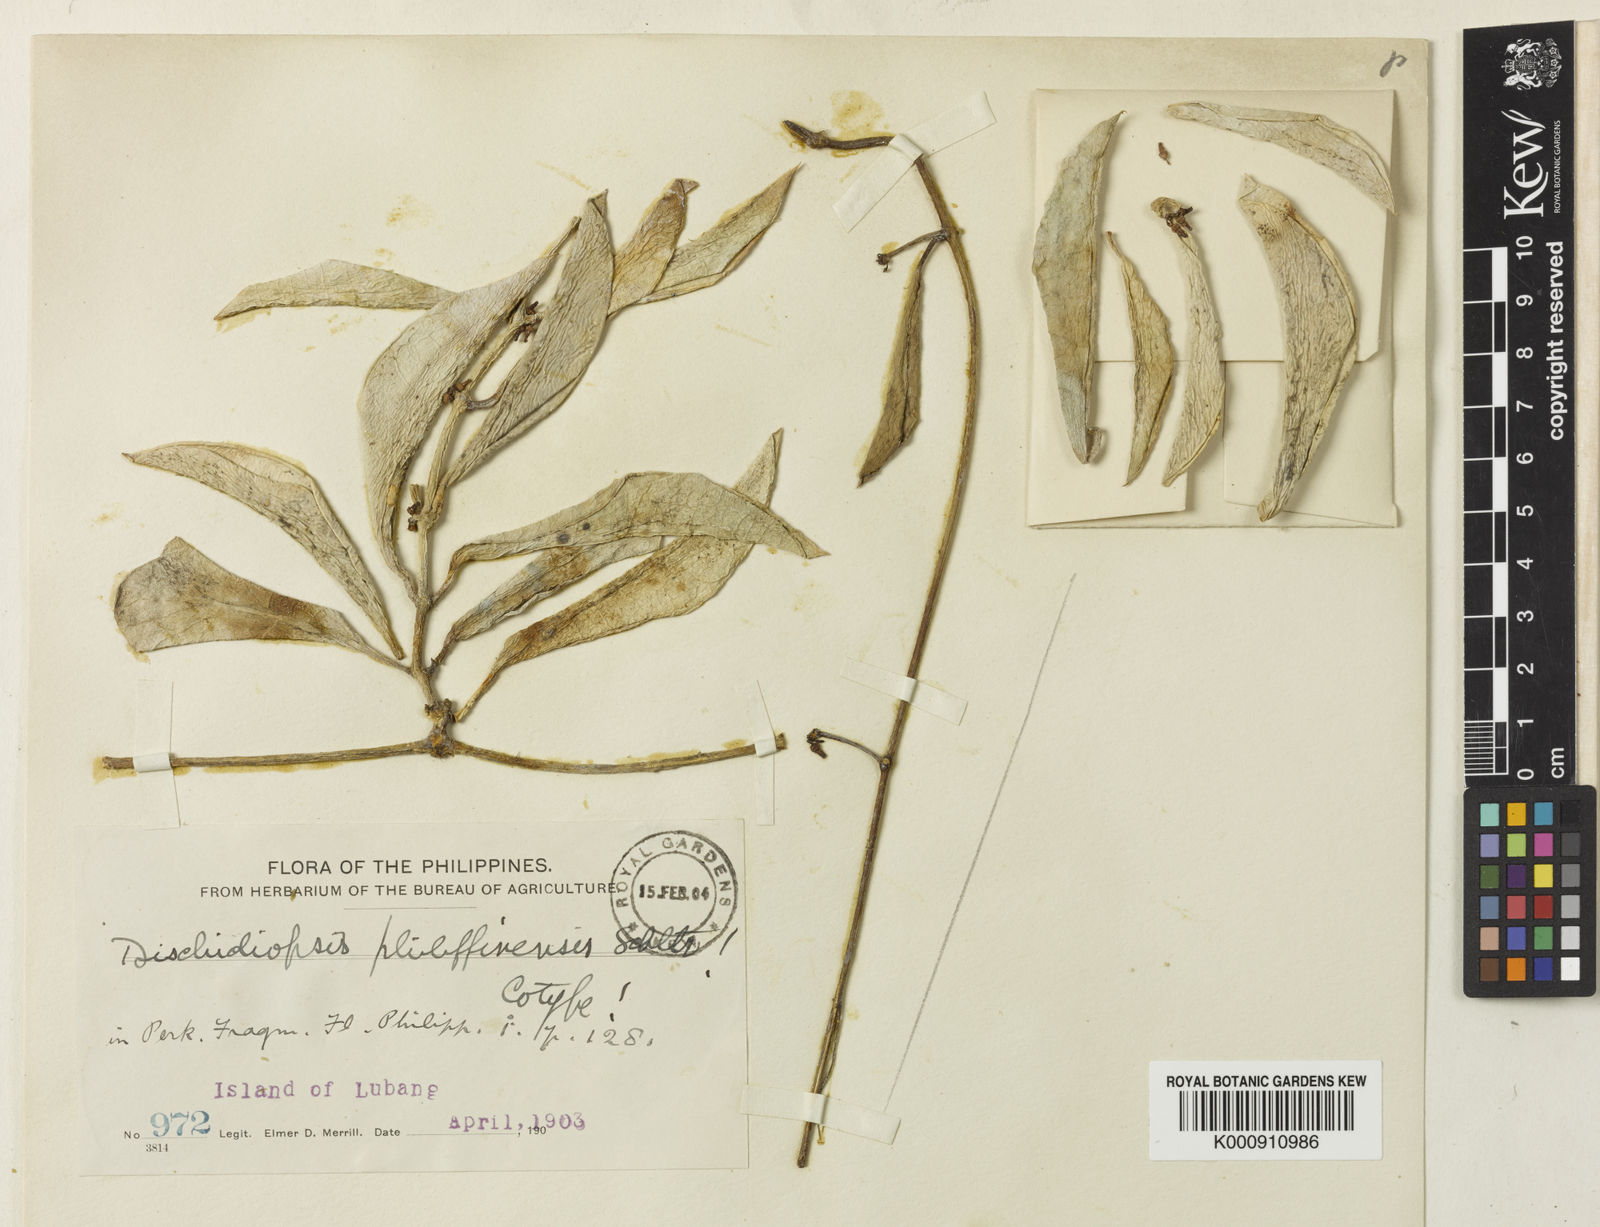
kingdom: Plantae
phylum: Tracheophyta
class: Magnoliopsida
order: Gentianales
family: Apocynaceae
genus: Dischidia
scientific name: Dischidia
